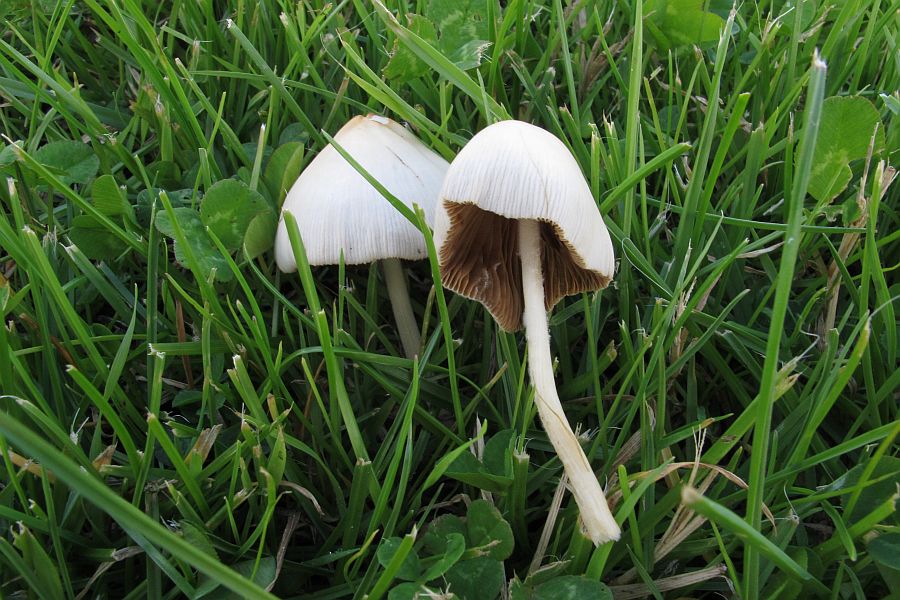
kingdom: Fungi
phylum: Basidiomycota
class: Agaricomycetes
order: Agaricales
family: Bolbitiaceae
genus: Conocybe
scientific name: Conocybe apala
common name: mælkehvid keglehat
